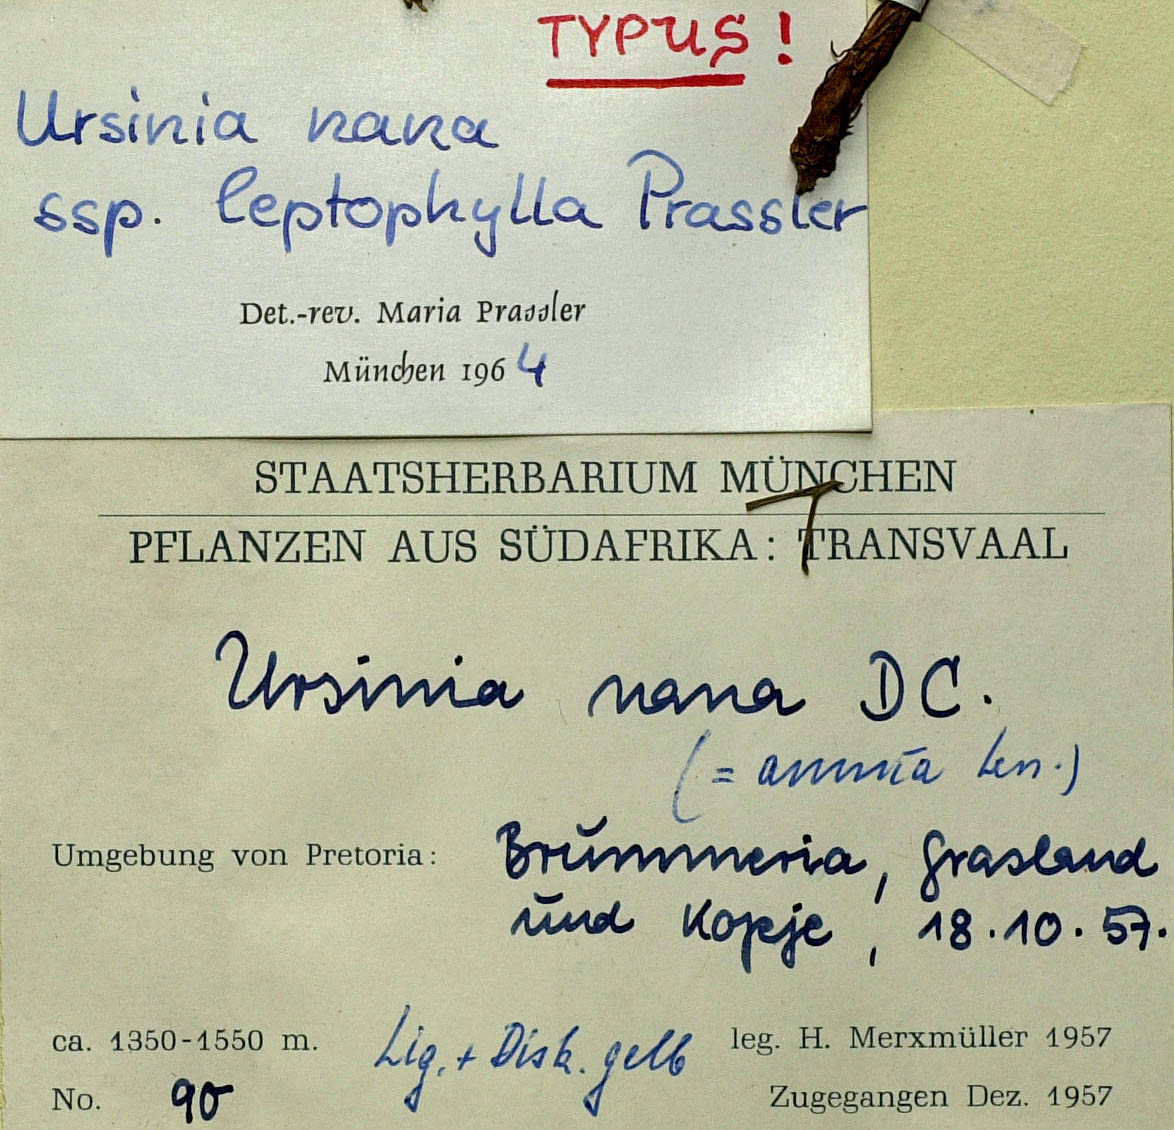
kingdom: Plantae
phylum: Tracheophyta
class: Magnoliopsida
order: Asterales
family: Asteraceae
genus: Ursinia
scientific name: Ursinia nana
